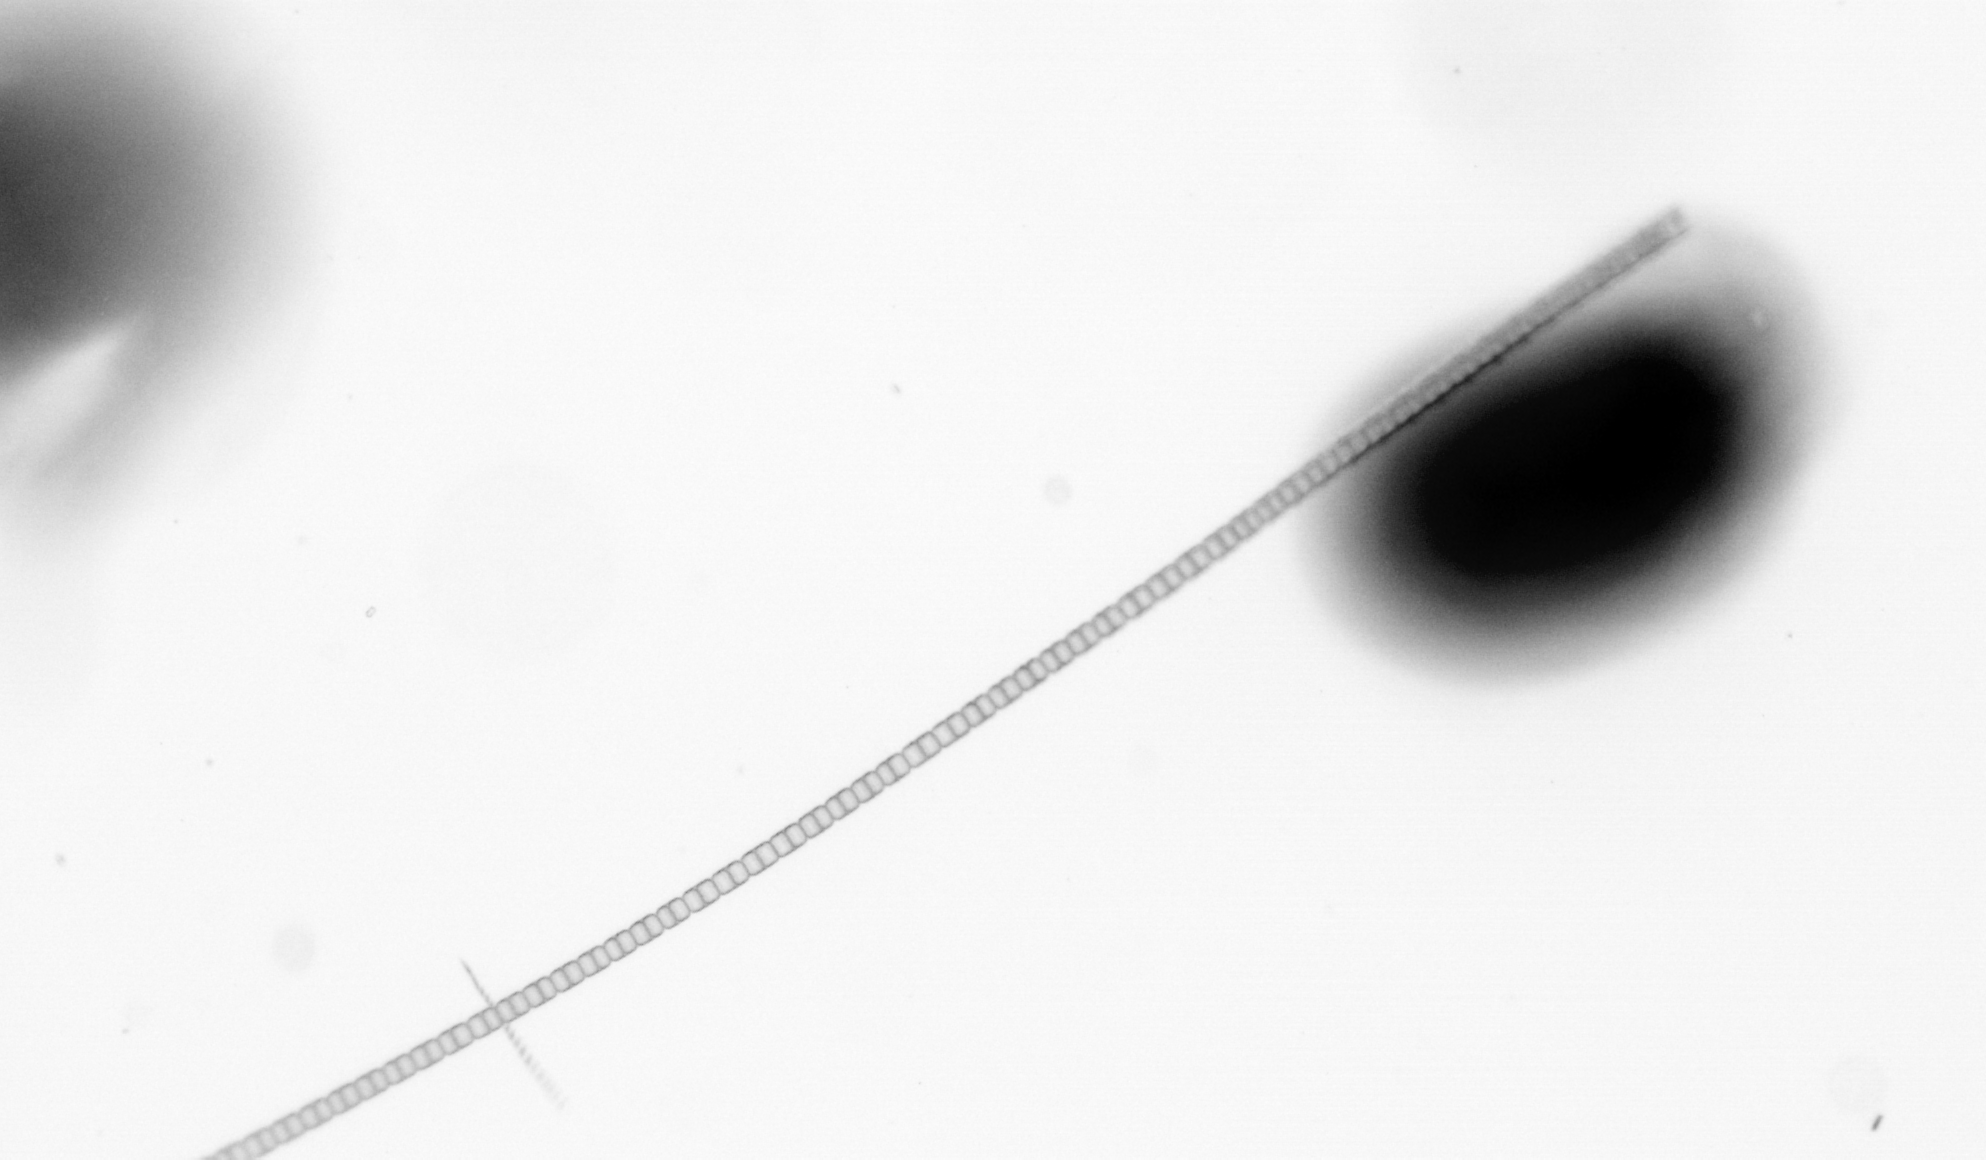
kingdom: Chromista
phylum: Ochrophyta
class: Bacillariophyceae
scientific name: Bacillariophyceae
